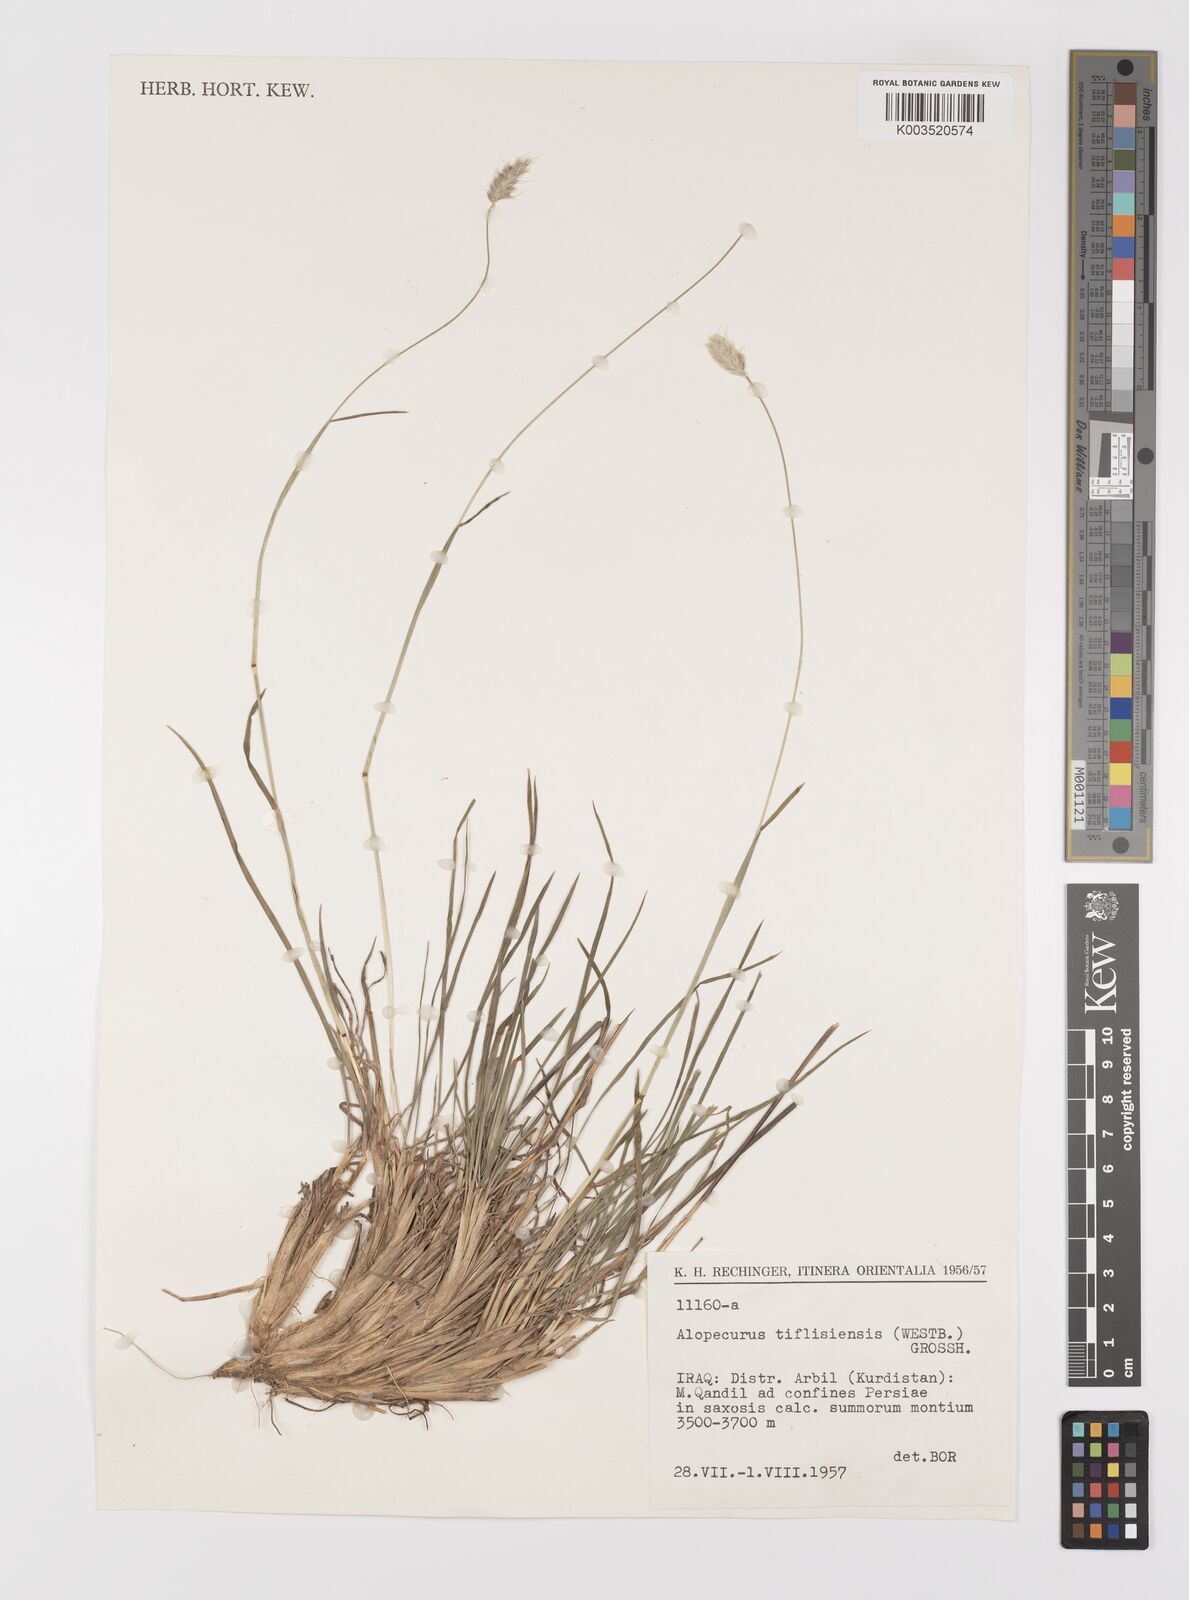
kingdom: Plantae
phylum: Tracheophyta
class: Liliopsida
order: Poales
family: Poaceae
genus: Alopecurus
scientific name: Alopecurus textilis
